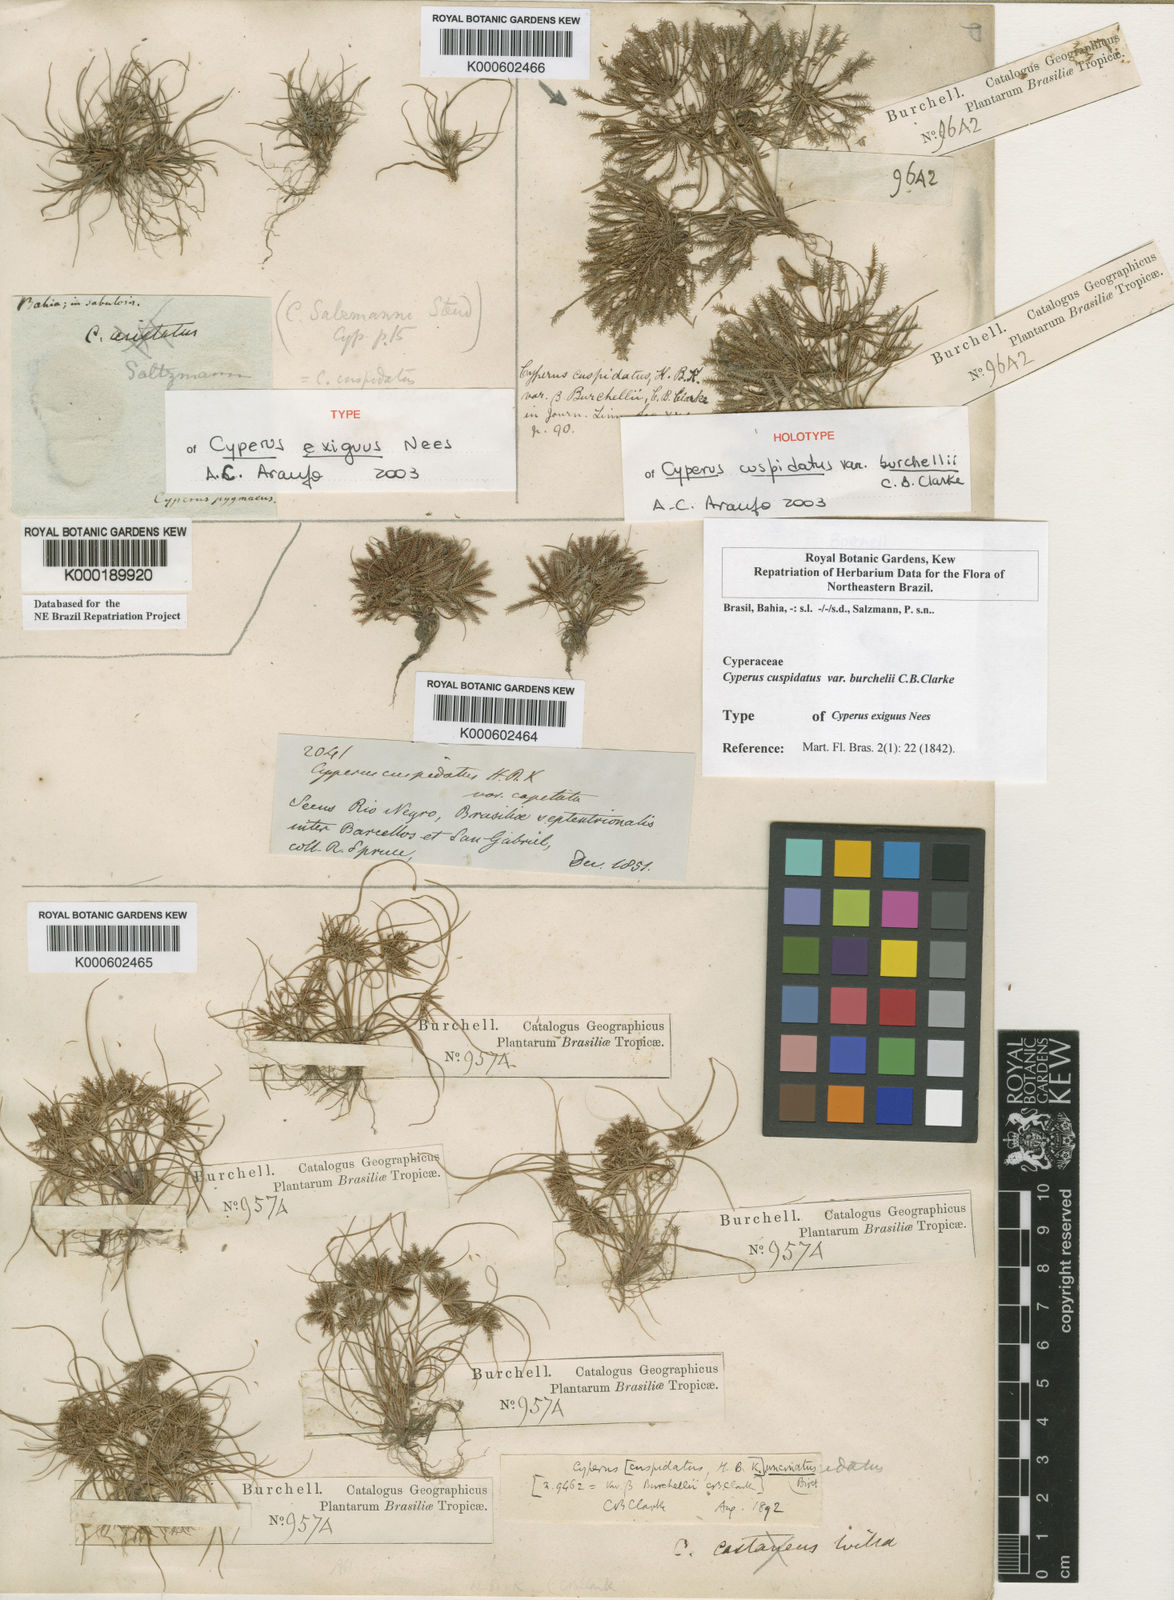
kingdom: Plantae
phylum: Tracheophyta
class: Liliopsida
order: Poales
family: Cyperaceae
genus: Cyperus
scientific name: Cyperus cuspidatus
